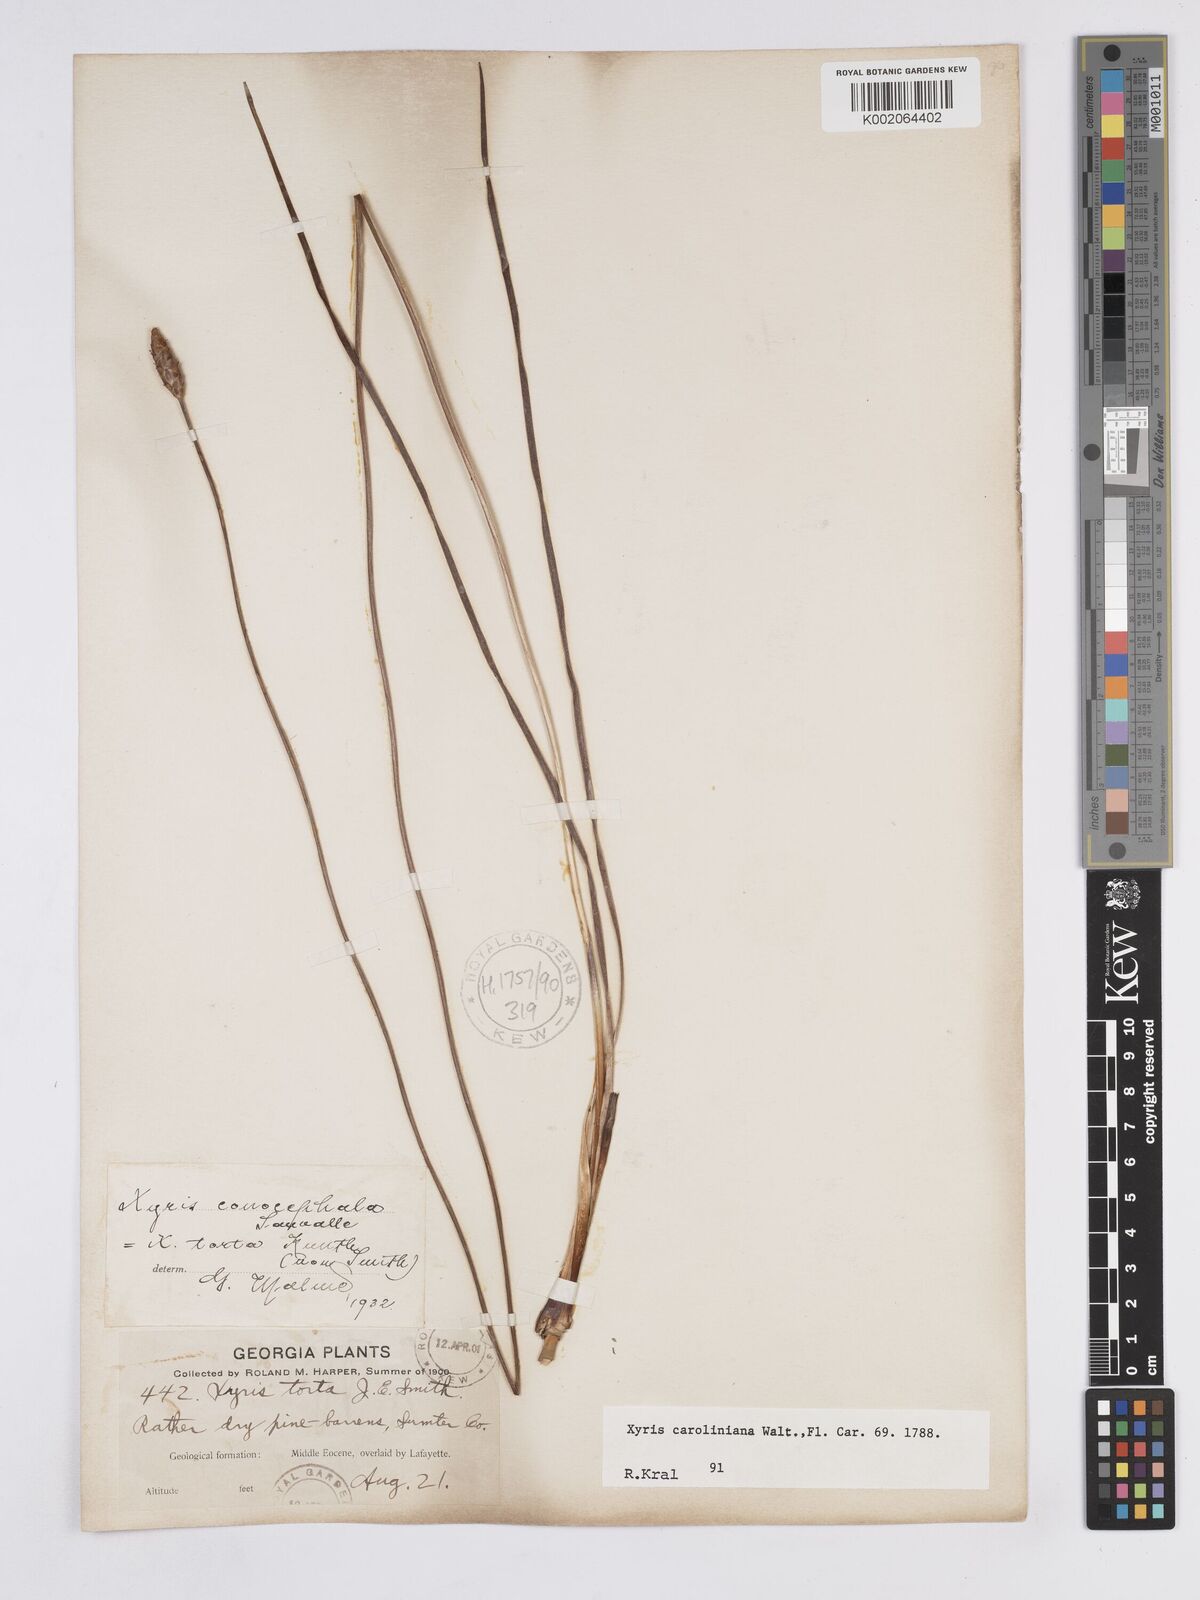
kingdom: Plantae
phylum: Tracheophyta
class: Liliopsida
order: Poales
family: Xyridaceae
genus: Xyris
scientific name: Xyris caroliniana
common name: Carolina yellow-eyed-grass
